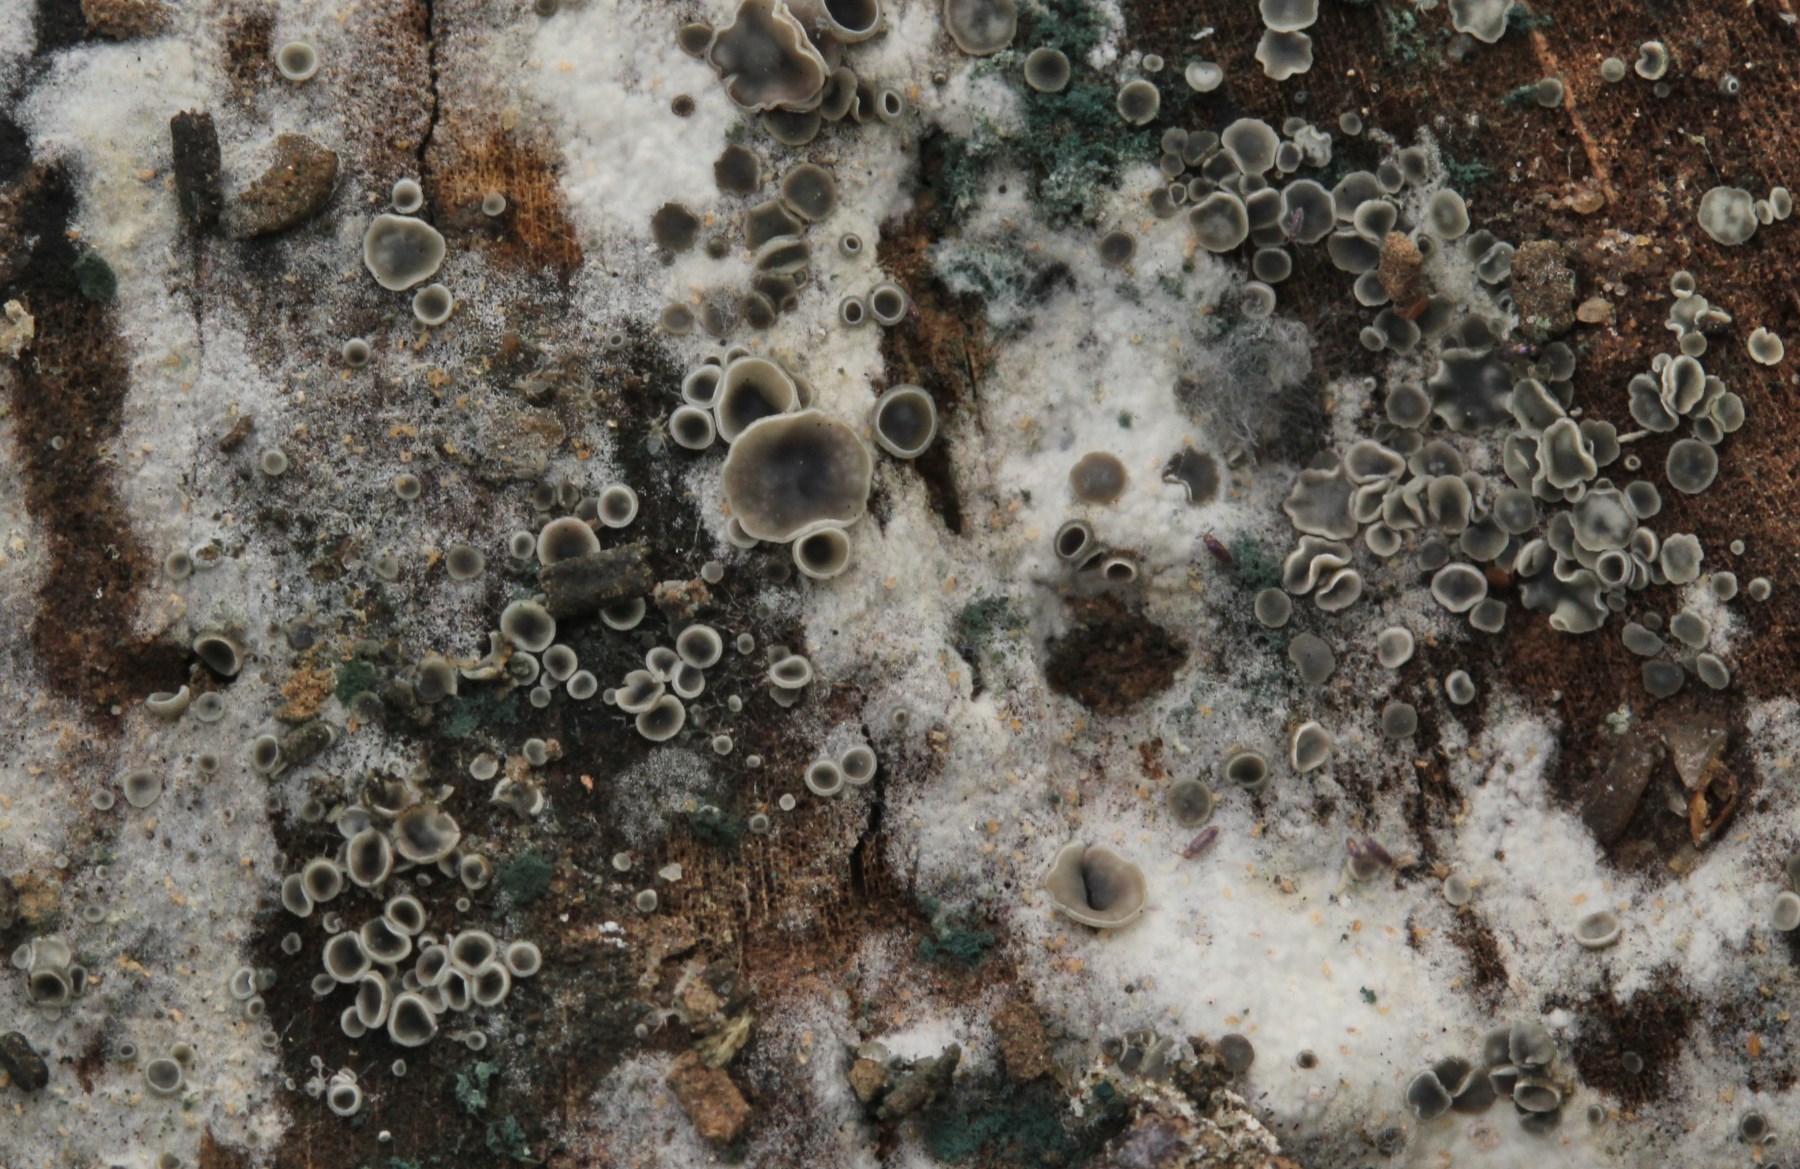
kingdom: Fungi
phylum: Ascomycota
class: Leotiomycetes
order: Helotiales
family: Mollisiaceae
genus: Mollisia
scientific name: Mollisia cinerea
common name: almindelig gråskive
